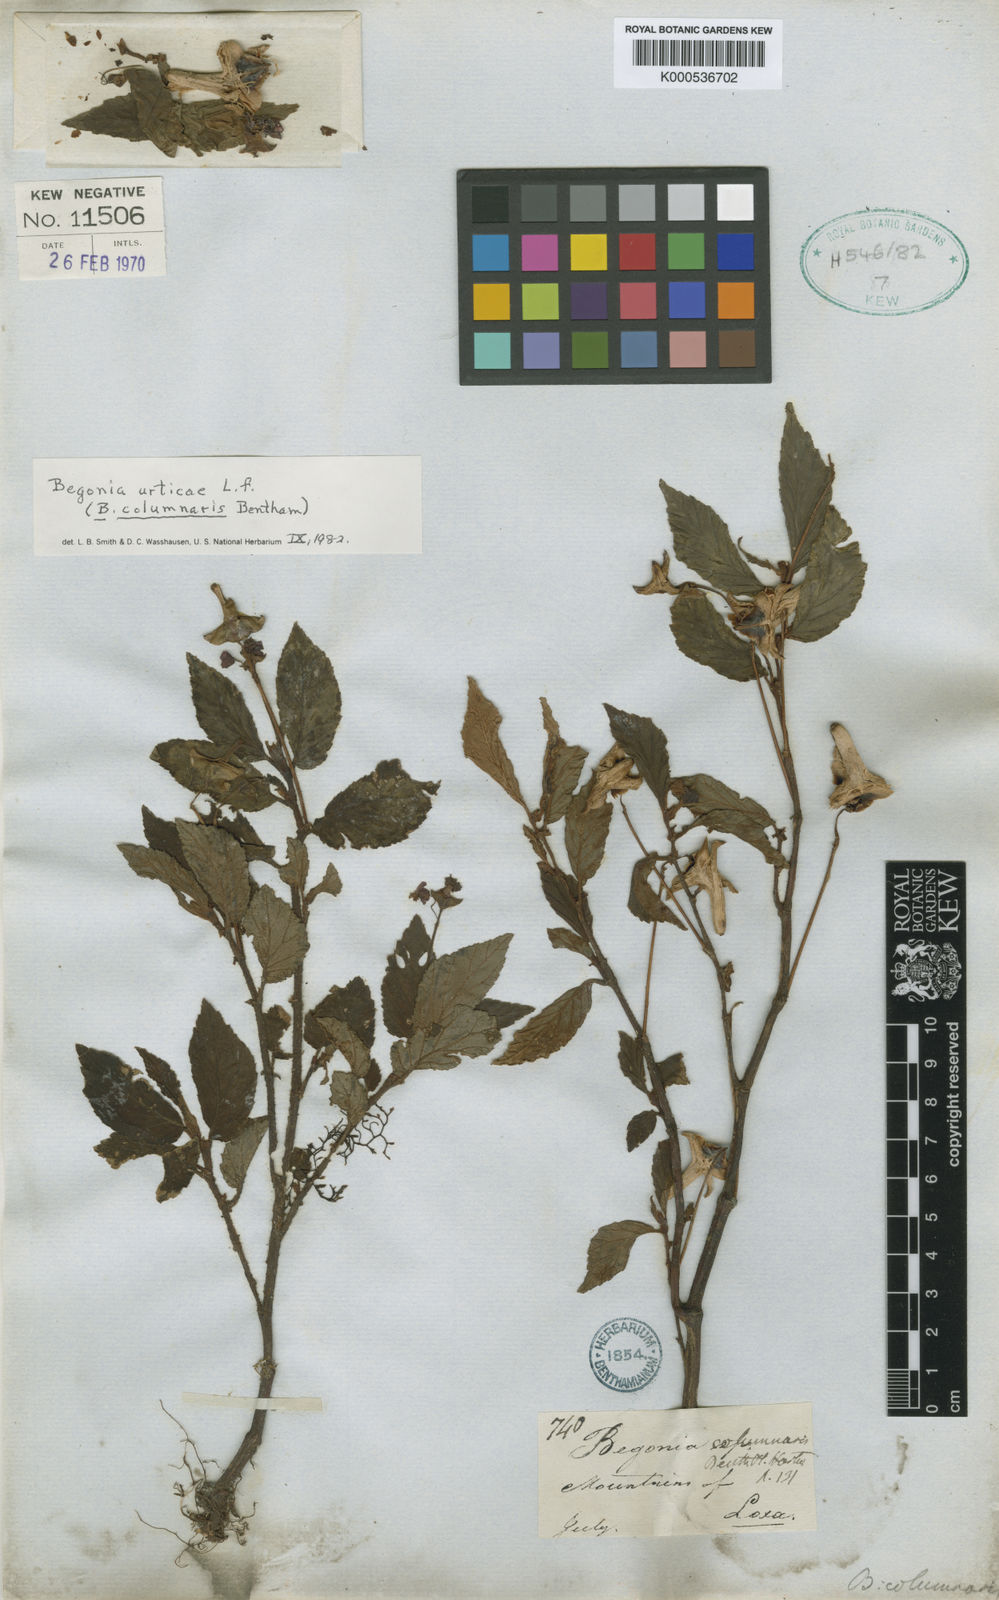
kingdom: Plantae
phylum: Tracheophyta
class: Magnoliopsida
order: Cucurbitales
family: Begoniaceae
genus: Begonia
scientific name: Begonia urticae
